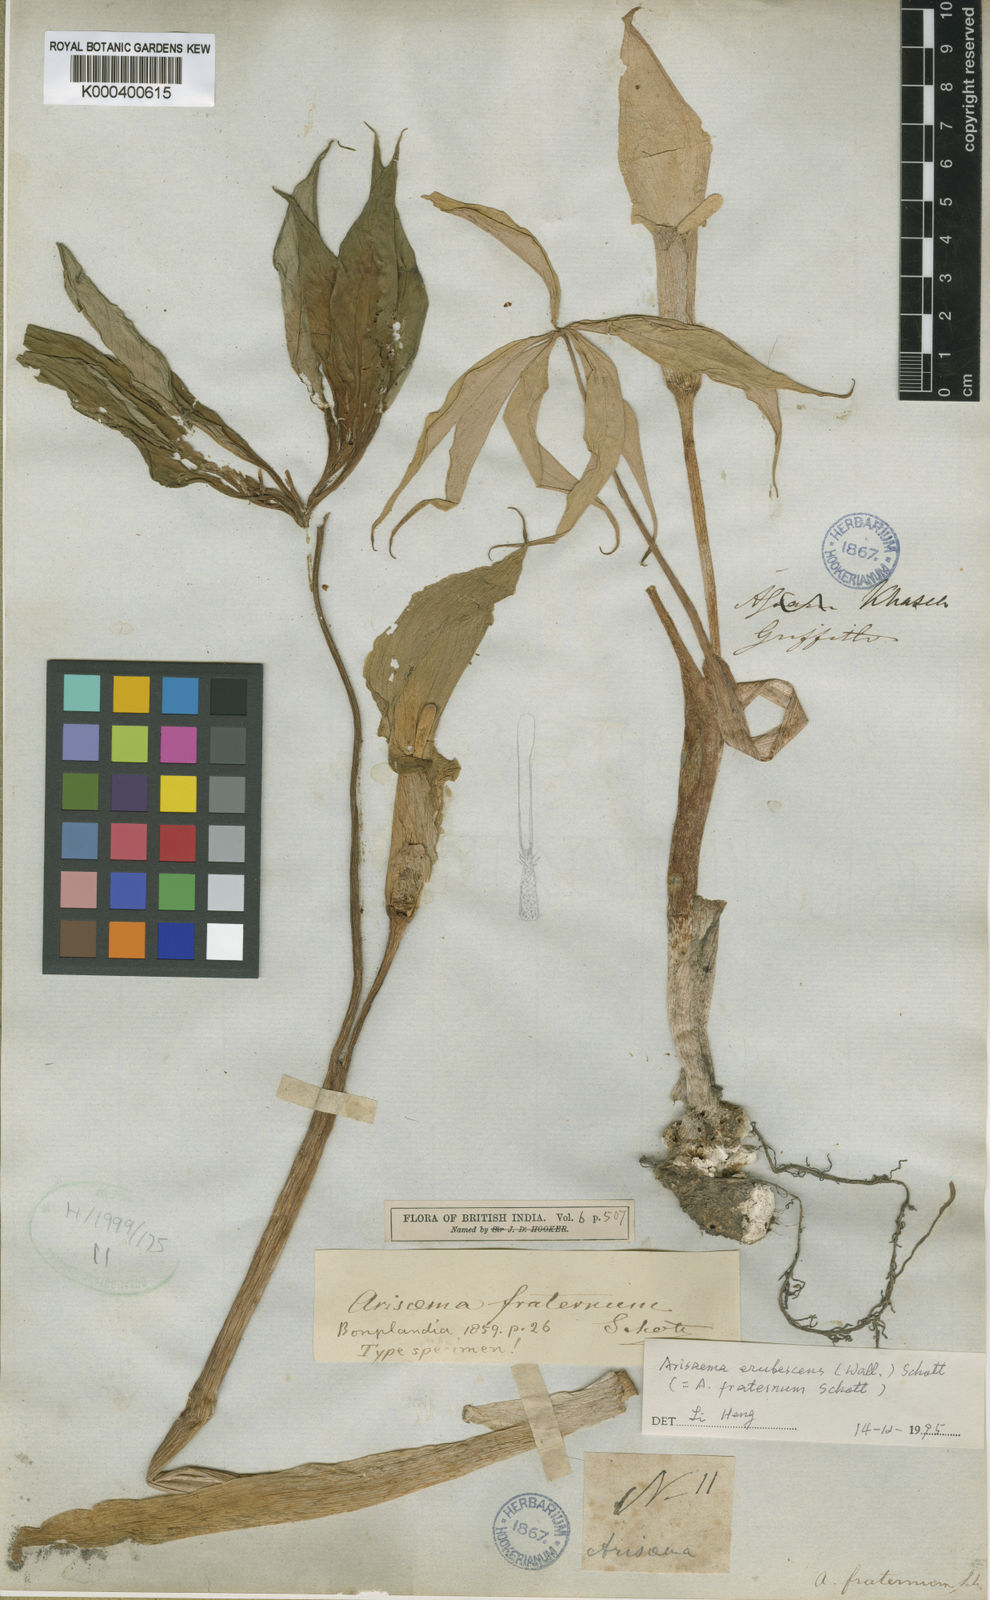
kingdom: Plantae
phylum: Tracheophyta
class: Liliopsida
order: Alismatales
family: Araceae
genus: Arisaema
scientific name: Arisaema erubescens
